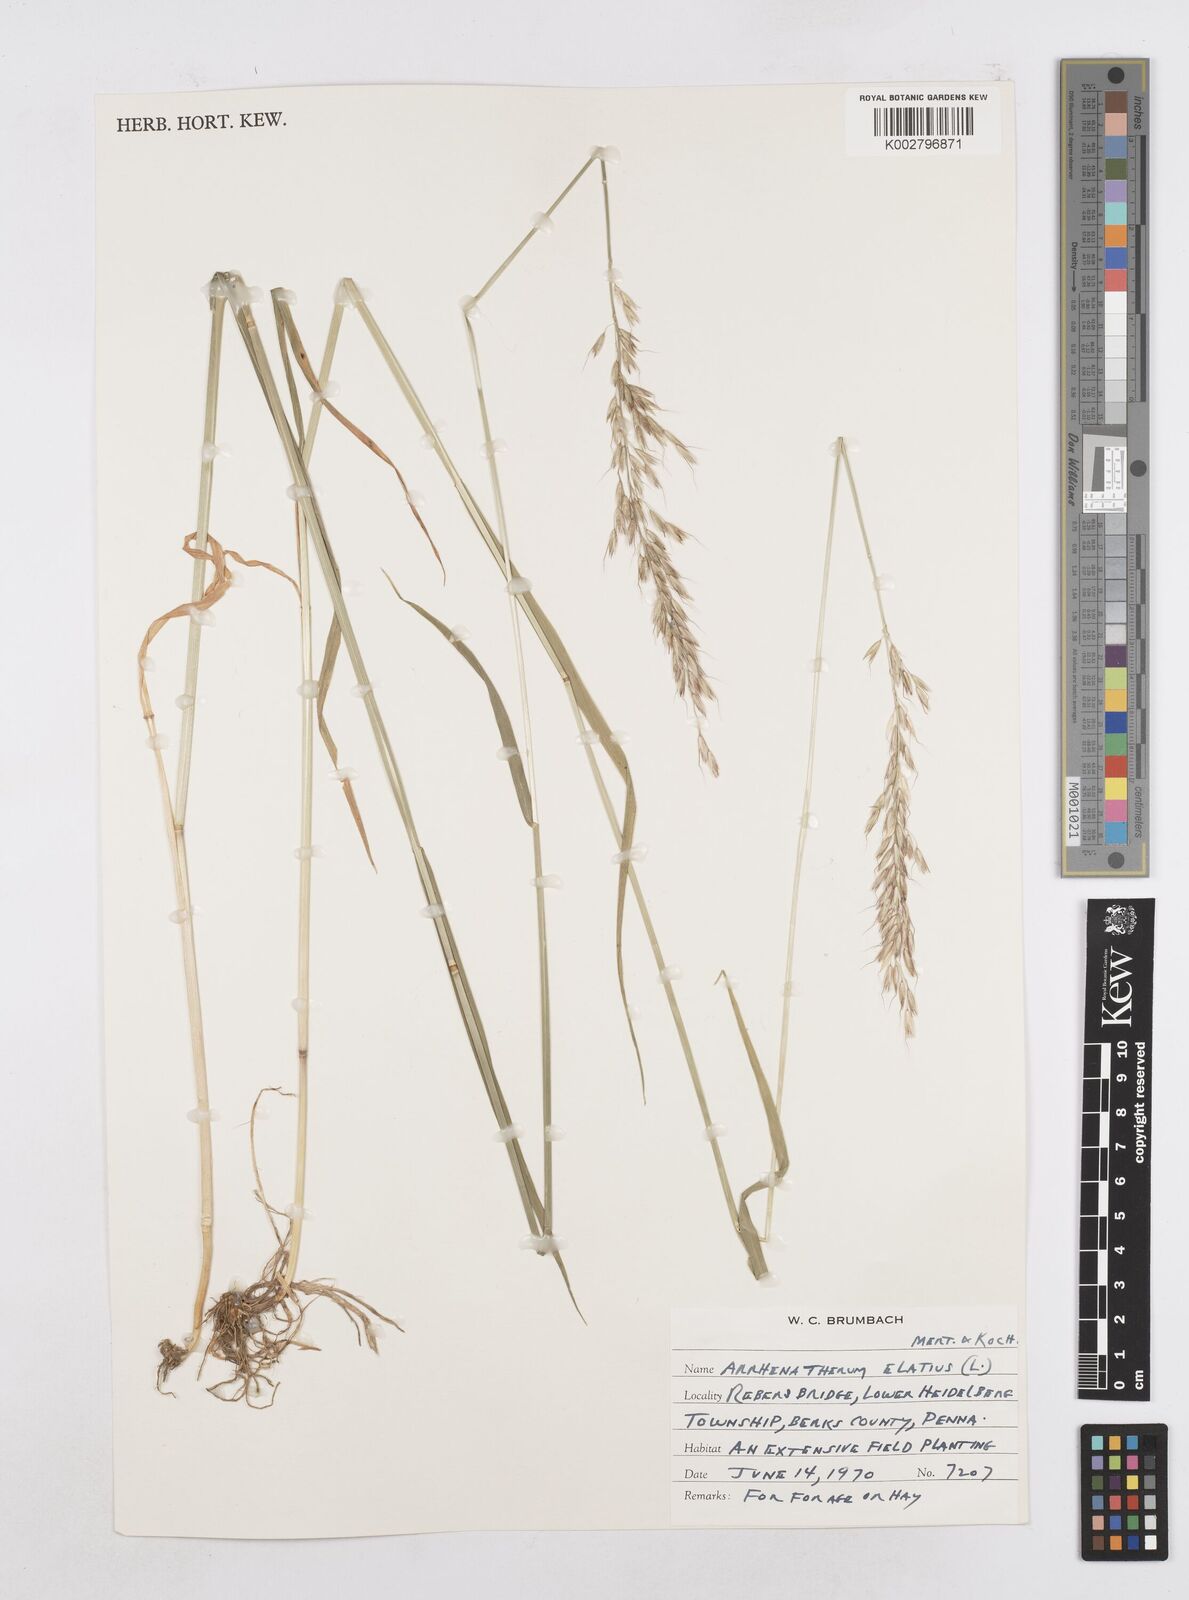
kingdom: Plantae
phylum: Tracheophyta
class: Liliopsida
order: Poales
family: Poaceae
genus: Arrhenatherum
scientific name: Arrhenatherum elatius
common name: Tall oatgrass
